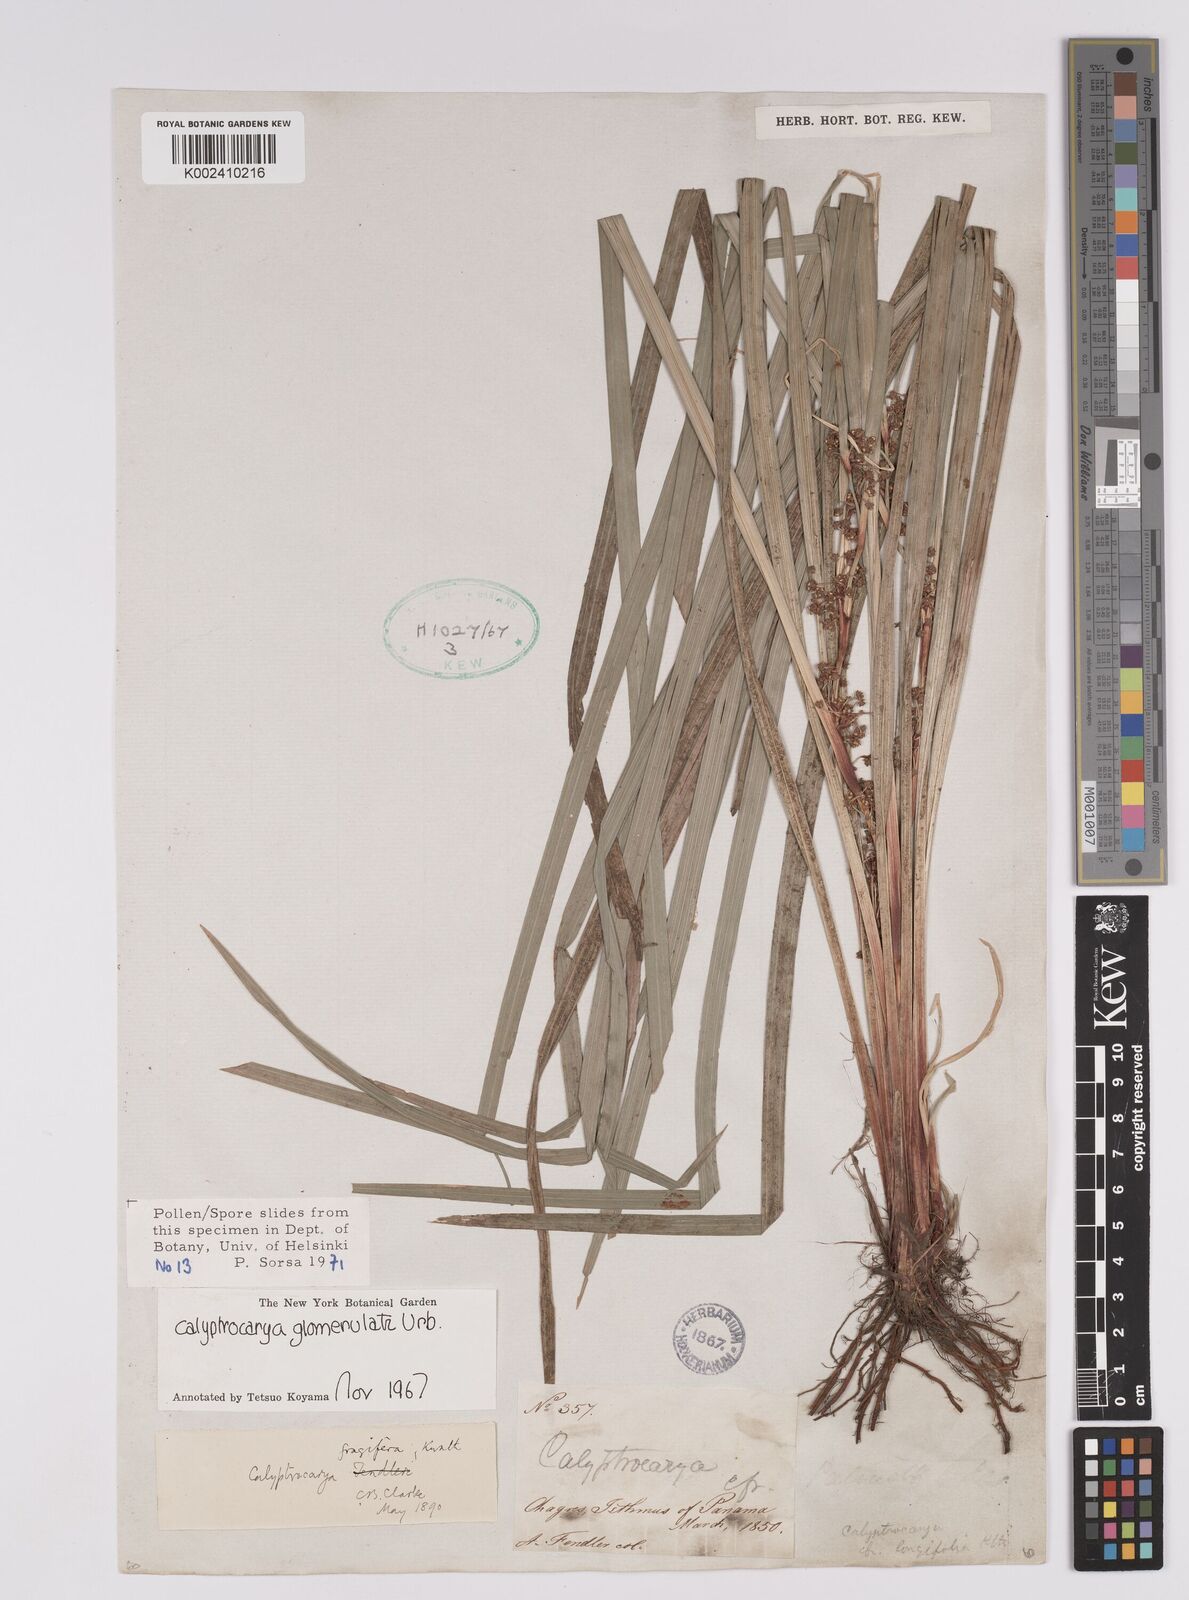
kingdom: Plantae
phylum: Tracheophyta
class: Liliopsida
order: Poales
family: Cyperaceae
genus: Calyptrocarya
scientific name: Calyptrocarya glomerulata
